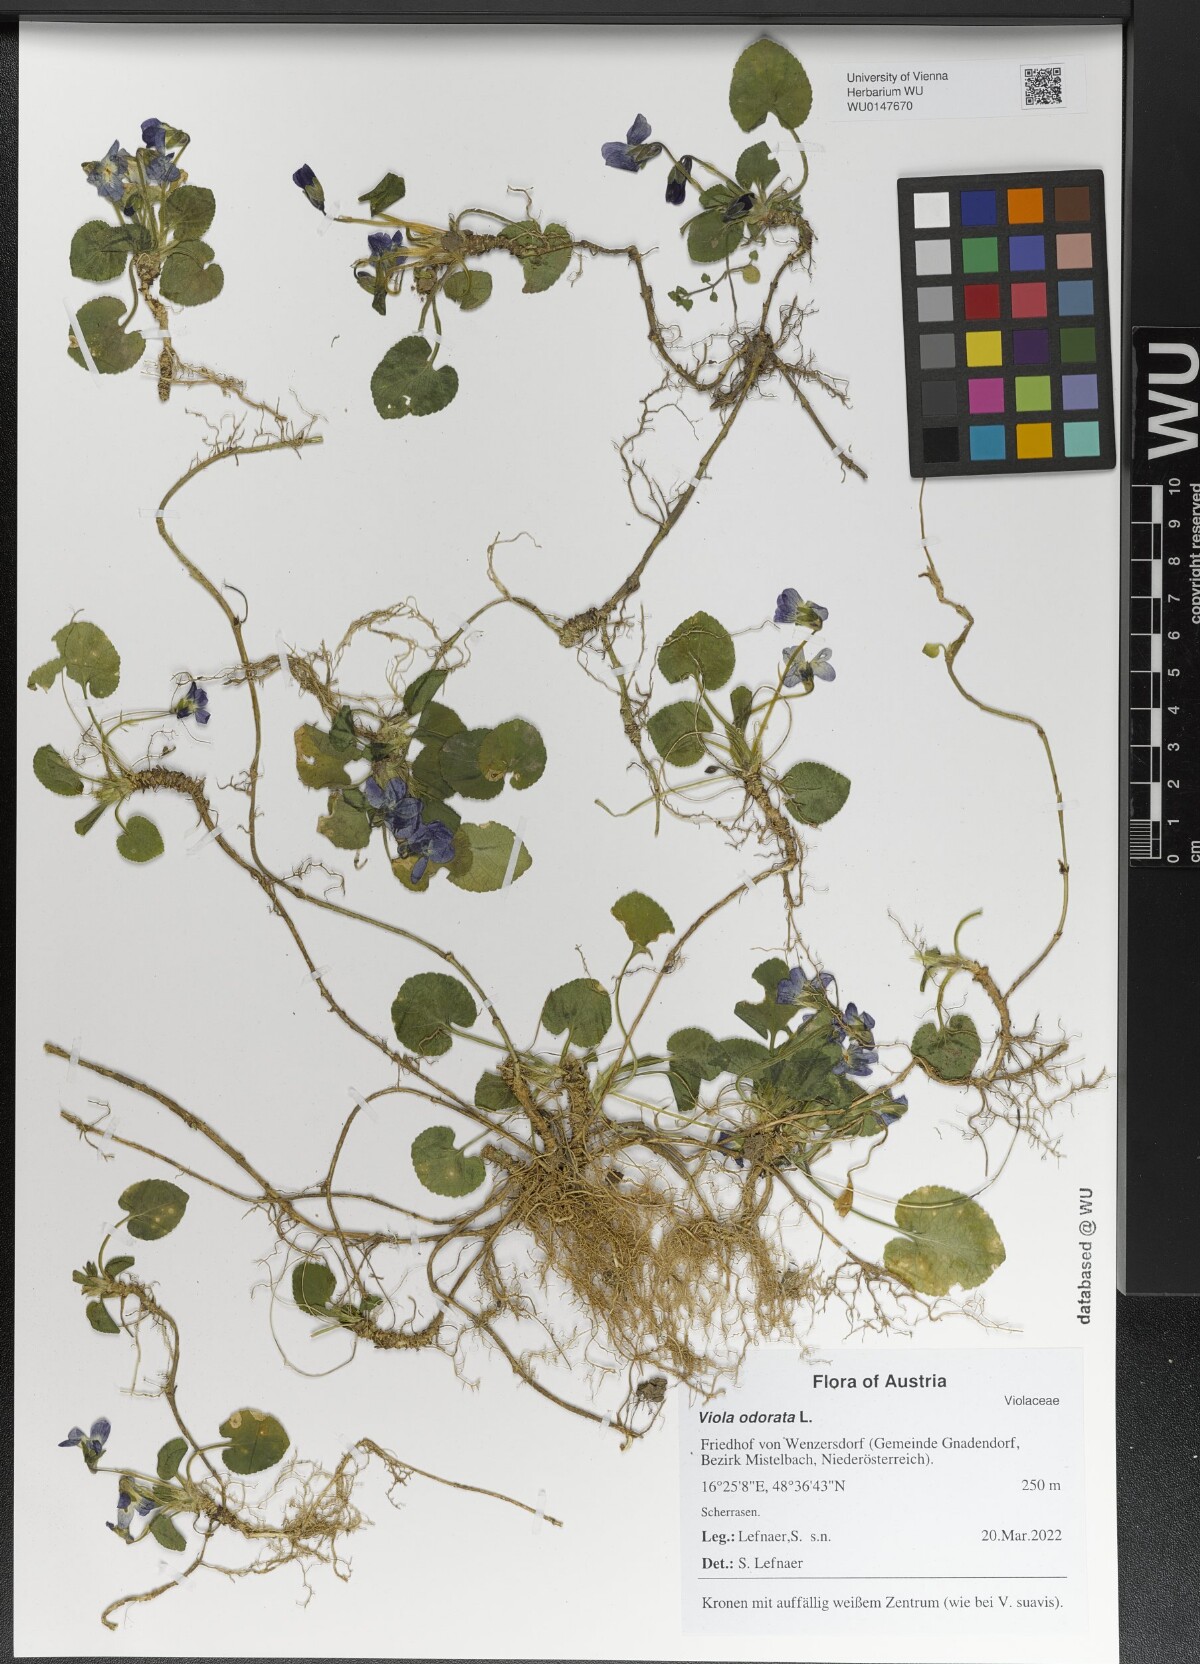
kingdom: Plantae
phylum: Tracheophyta
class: Magnoliopsida
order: Malpighiales
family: Violaceae
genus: Viola
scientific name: Viola odorata
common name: Sweet violet
